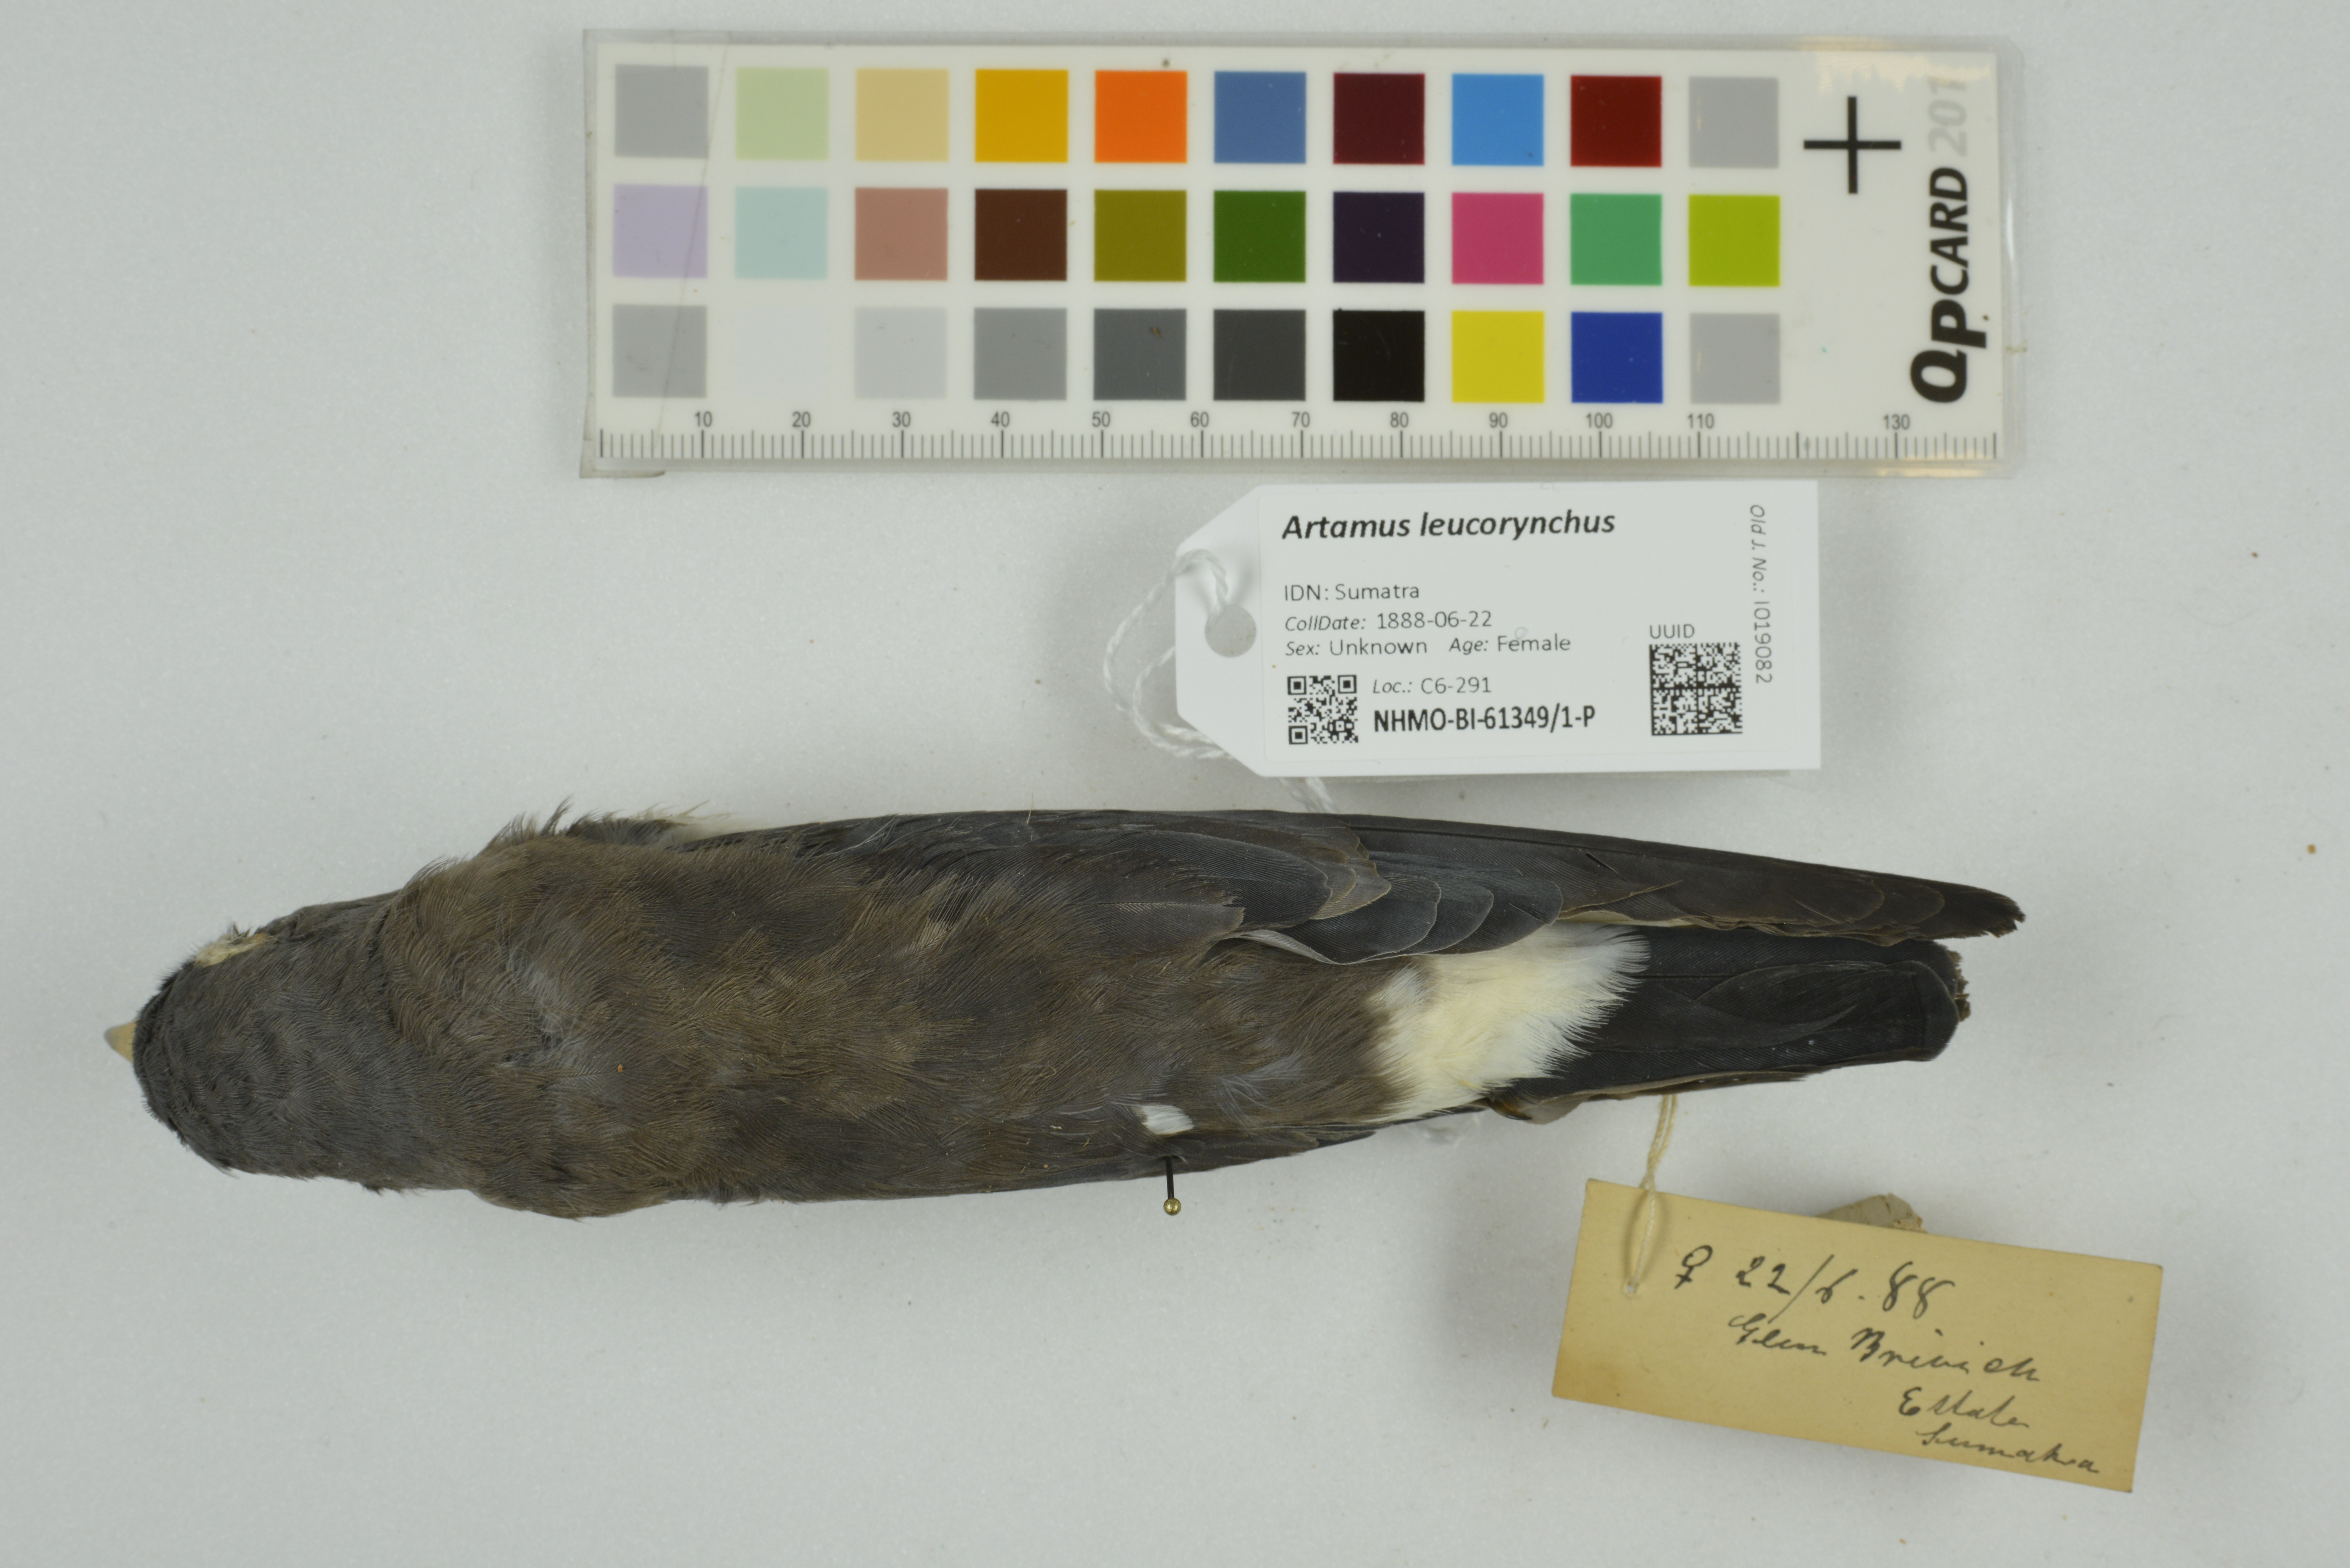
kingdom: Animalia
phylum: Chordata
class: Aves
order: Passeriformes
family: Artamidae
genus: Artamus
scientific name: Artamus leucoryn
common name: White-breasted woodswallow
